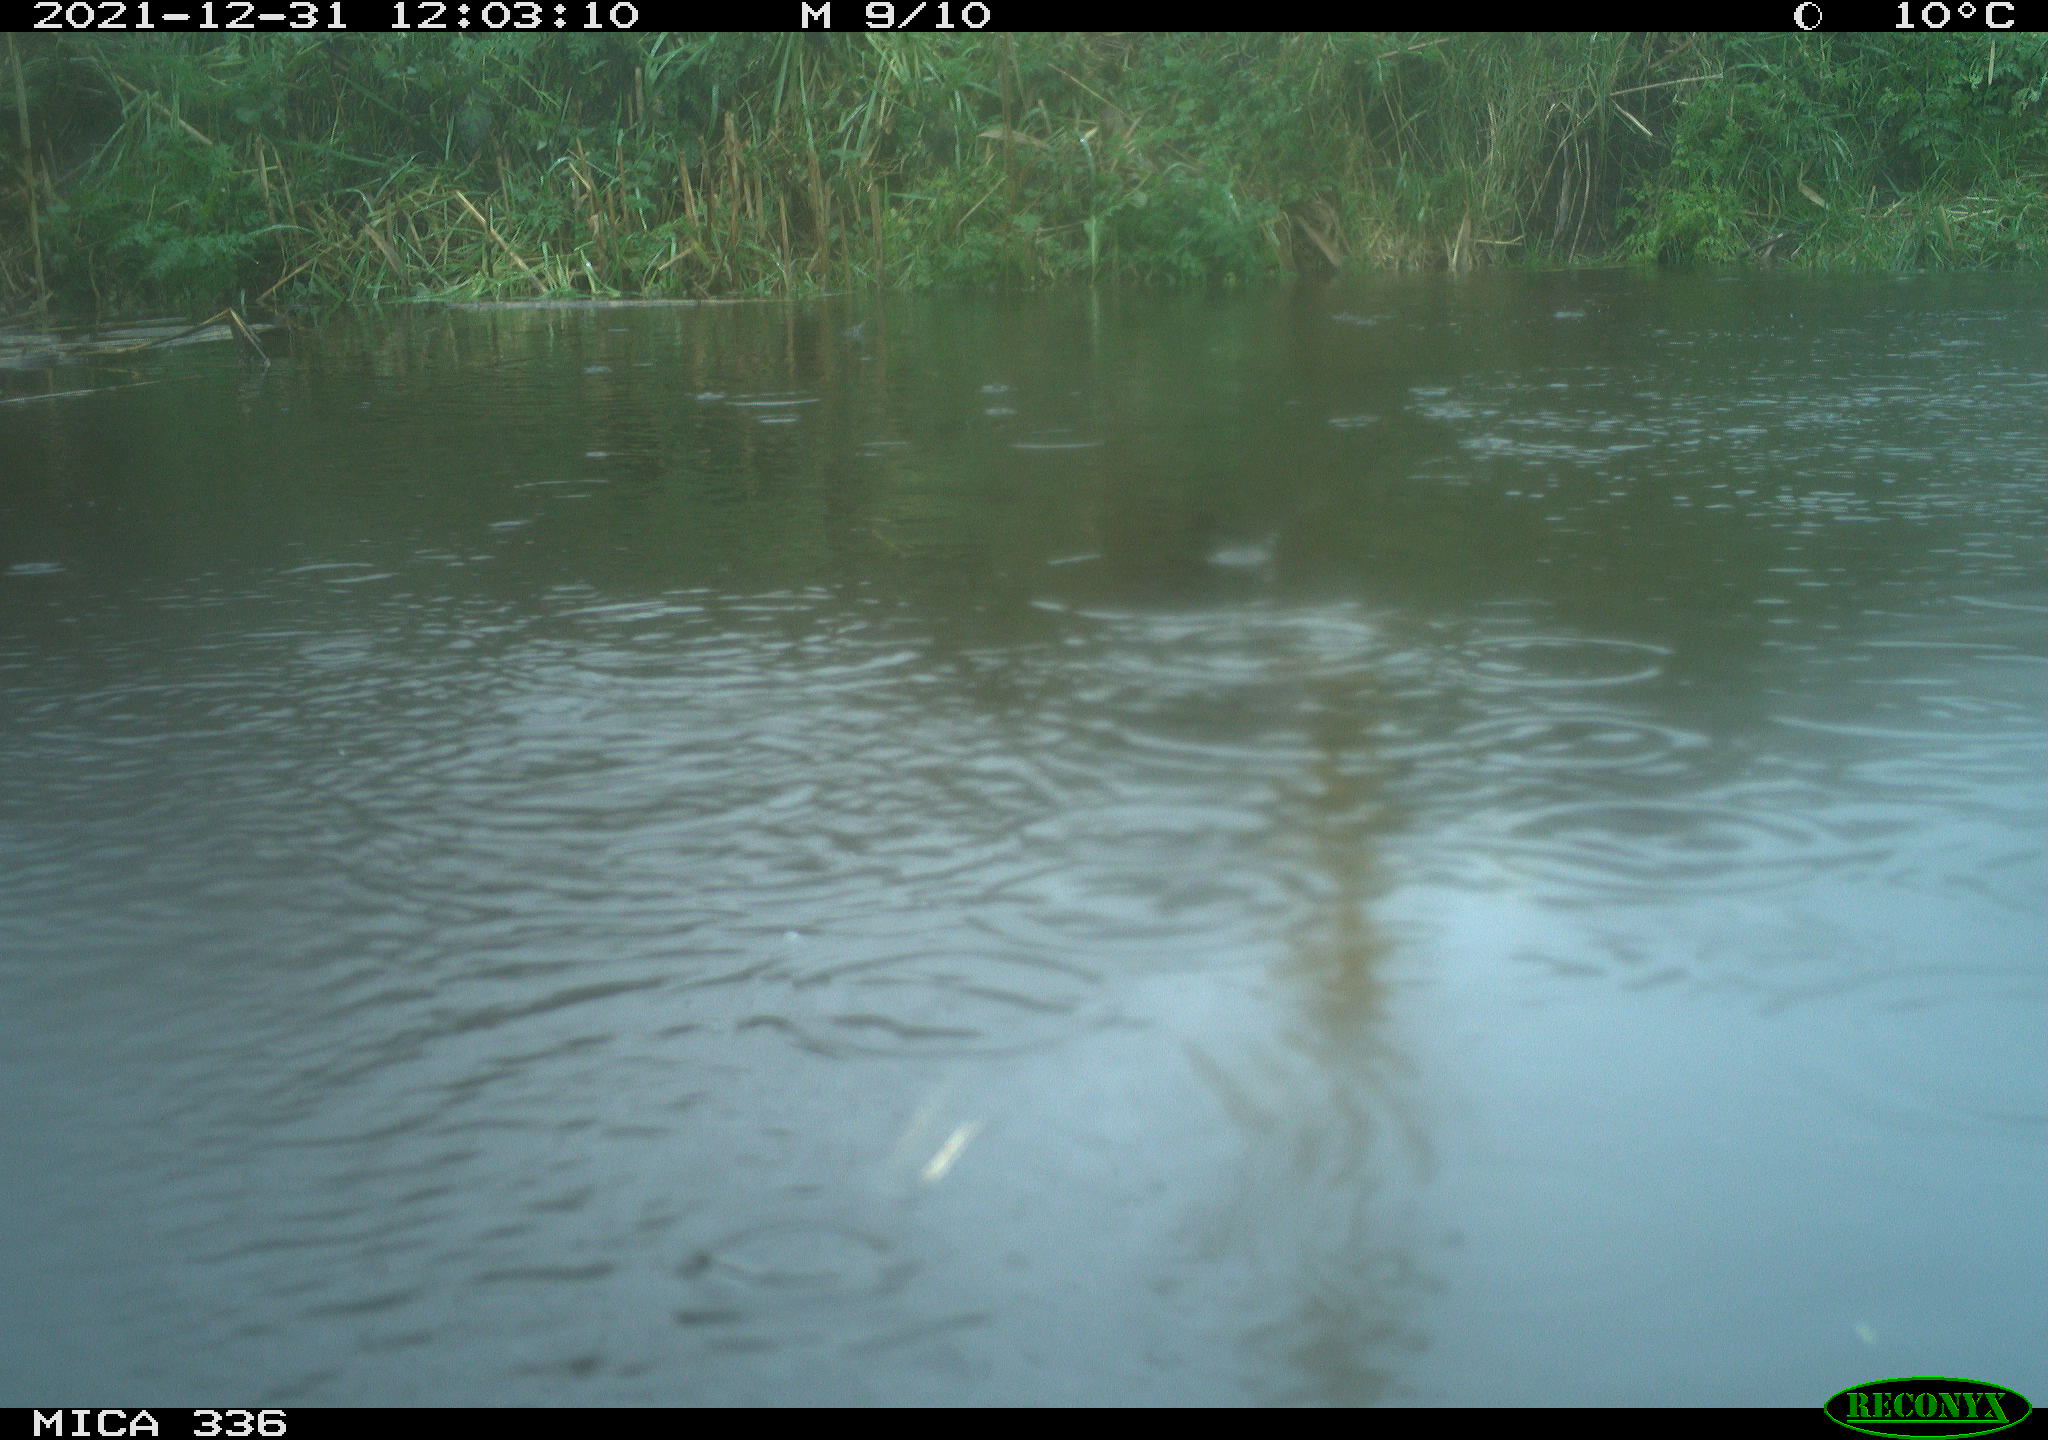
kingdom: Animalia
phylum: Chordata
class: Aves
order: Gruiformes
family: Rallidae
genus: Gallinula
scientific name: Gallinula chloropus
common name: Common moorhen
